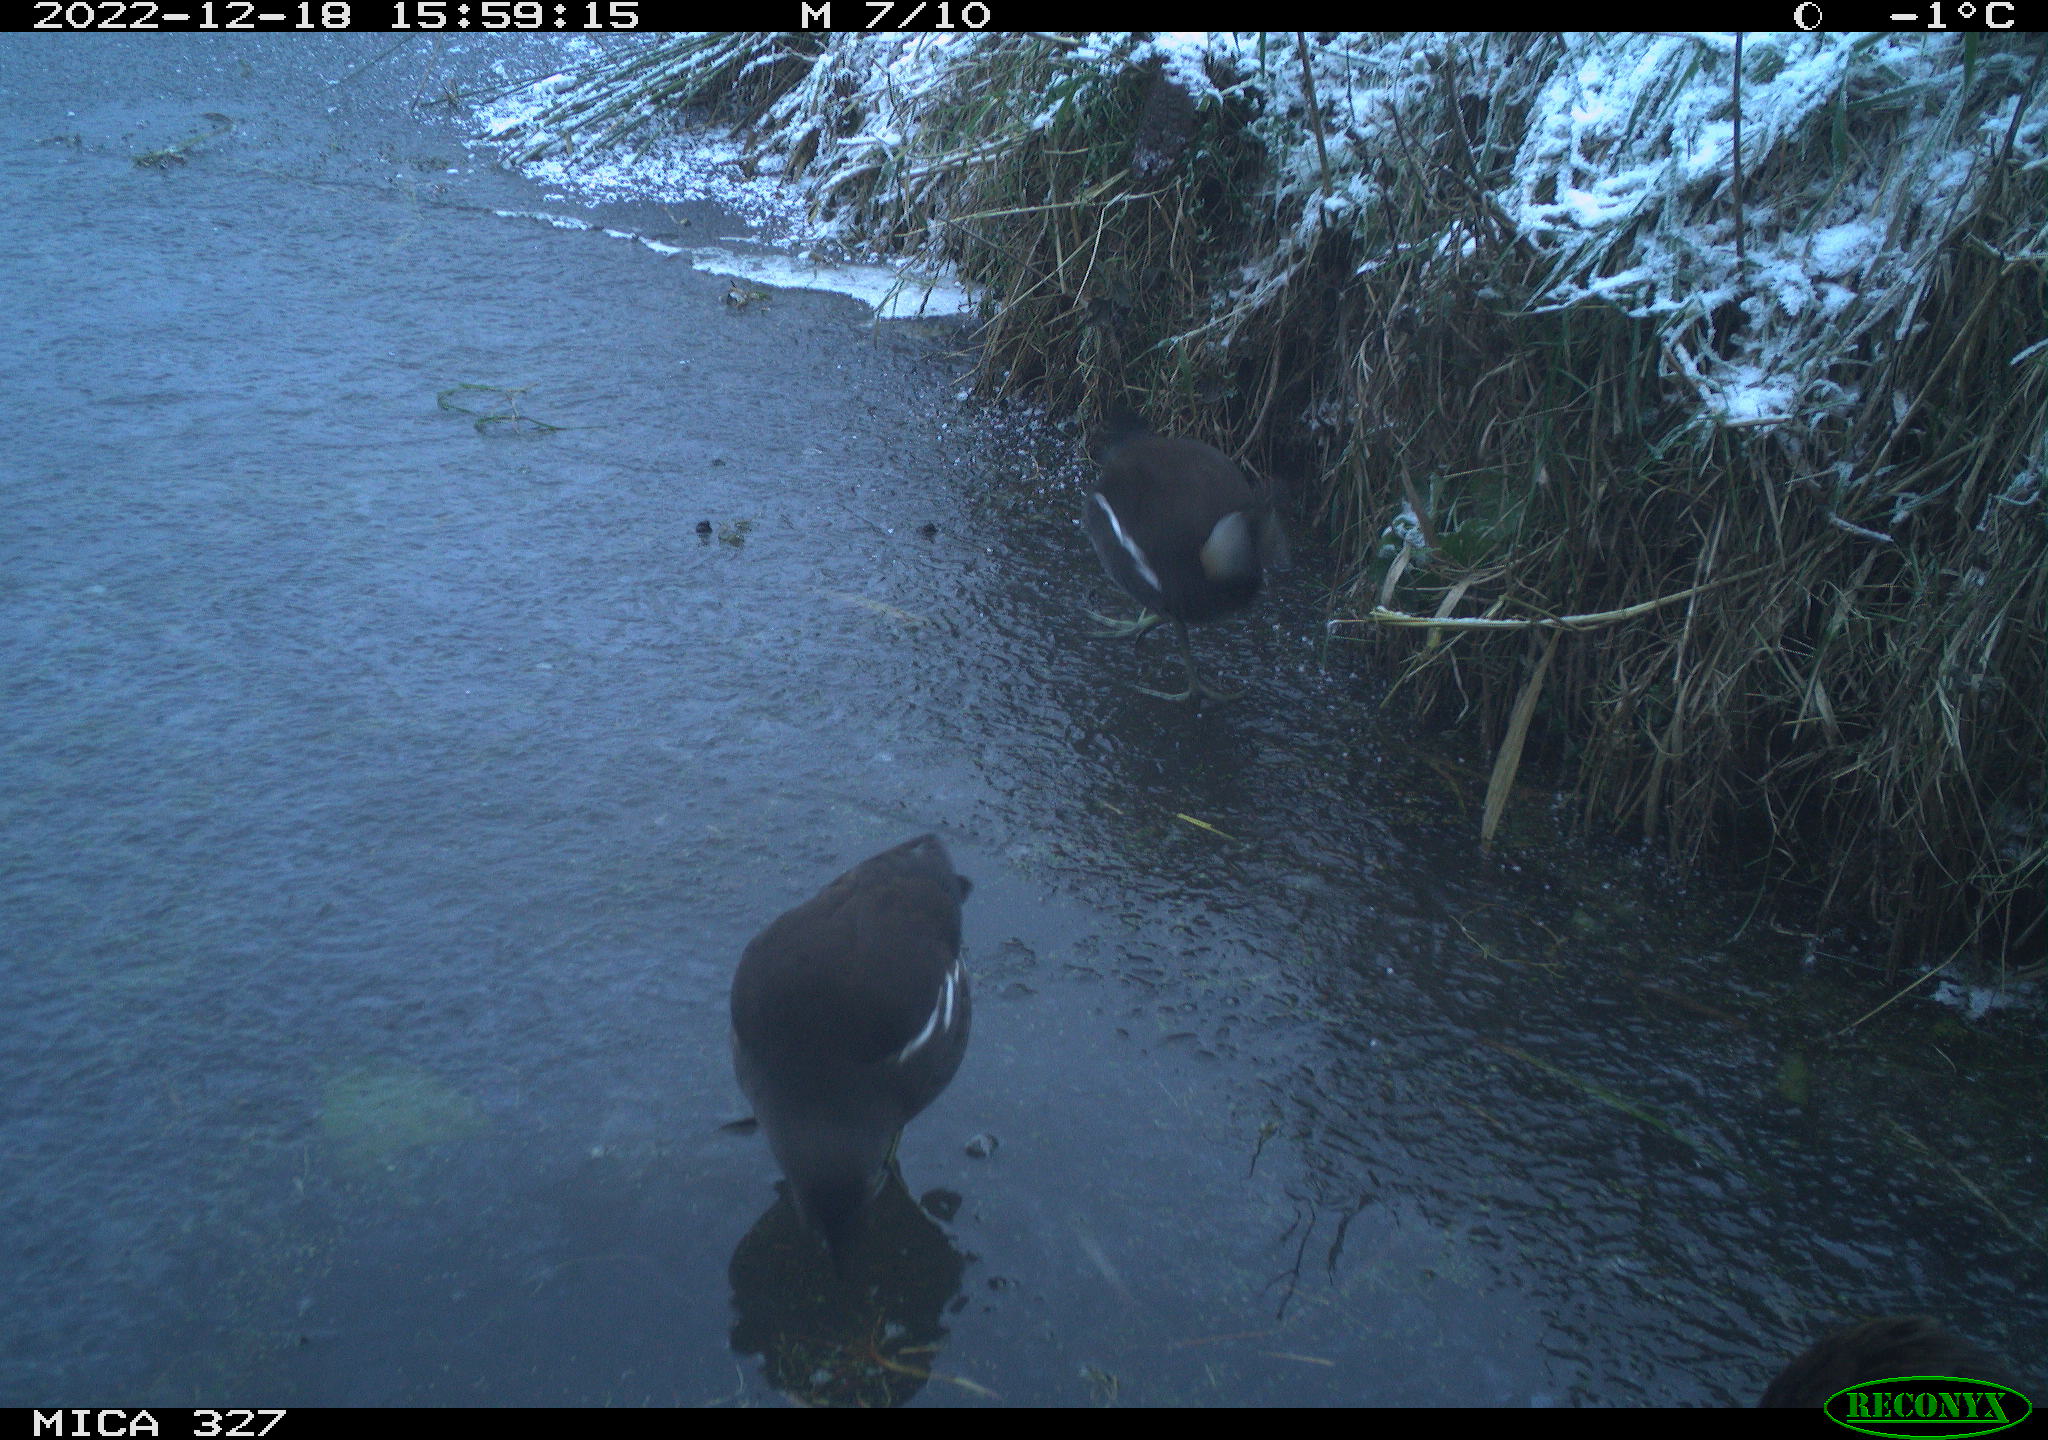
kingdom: Animalia
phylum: Chordata
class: Aves
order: Gruiformes
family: Rallidae
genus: Gallinula
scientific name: Gallinula chloropus
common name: Common moorhen
